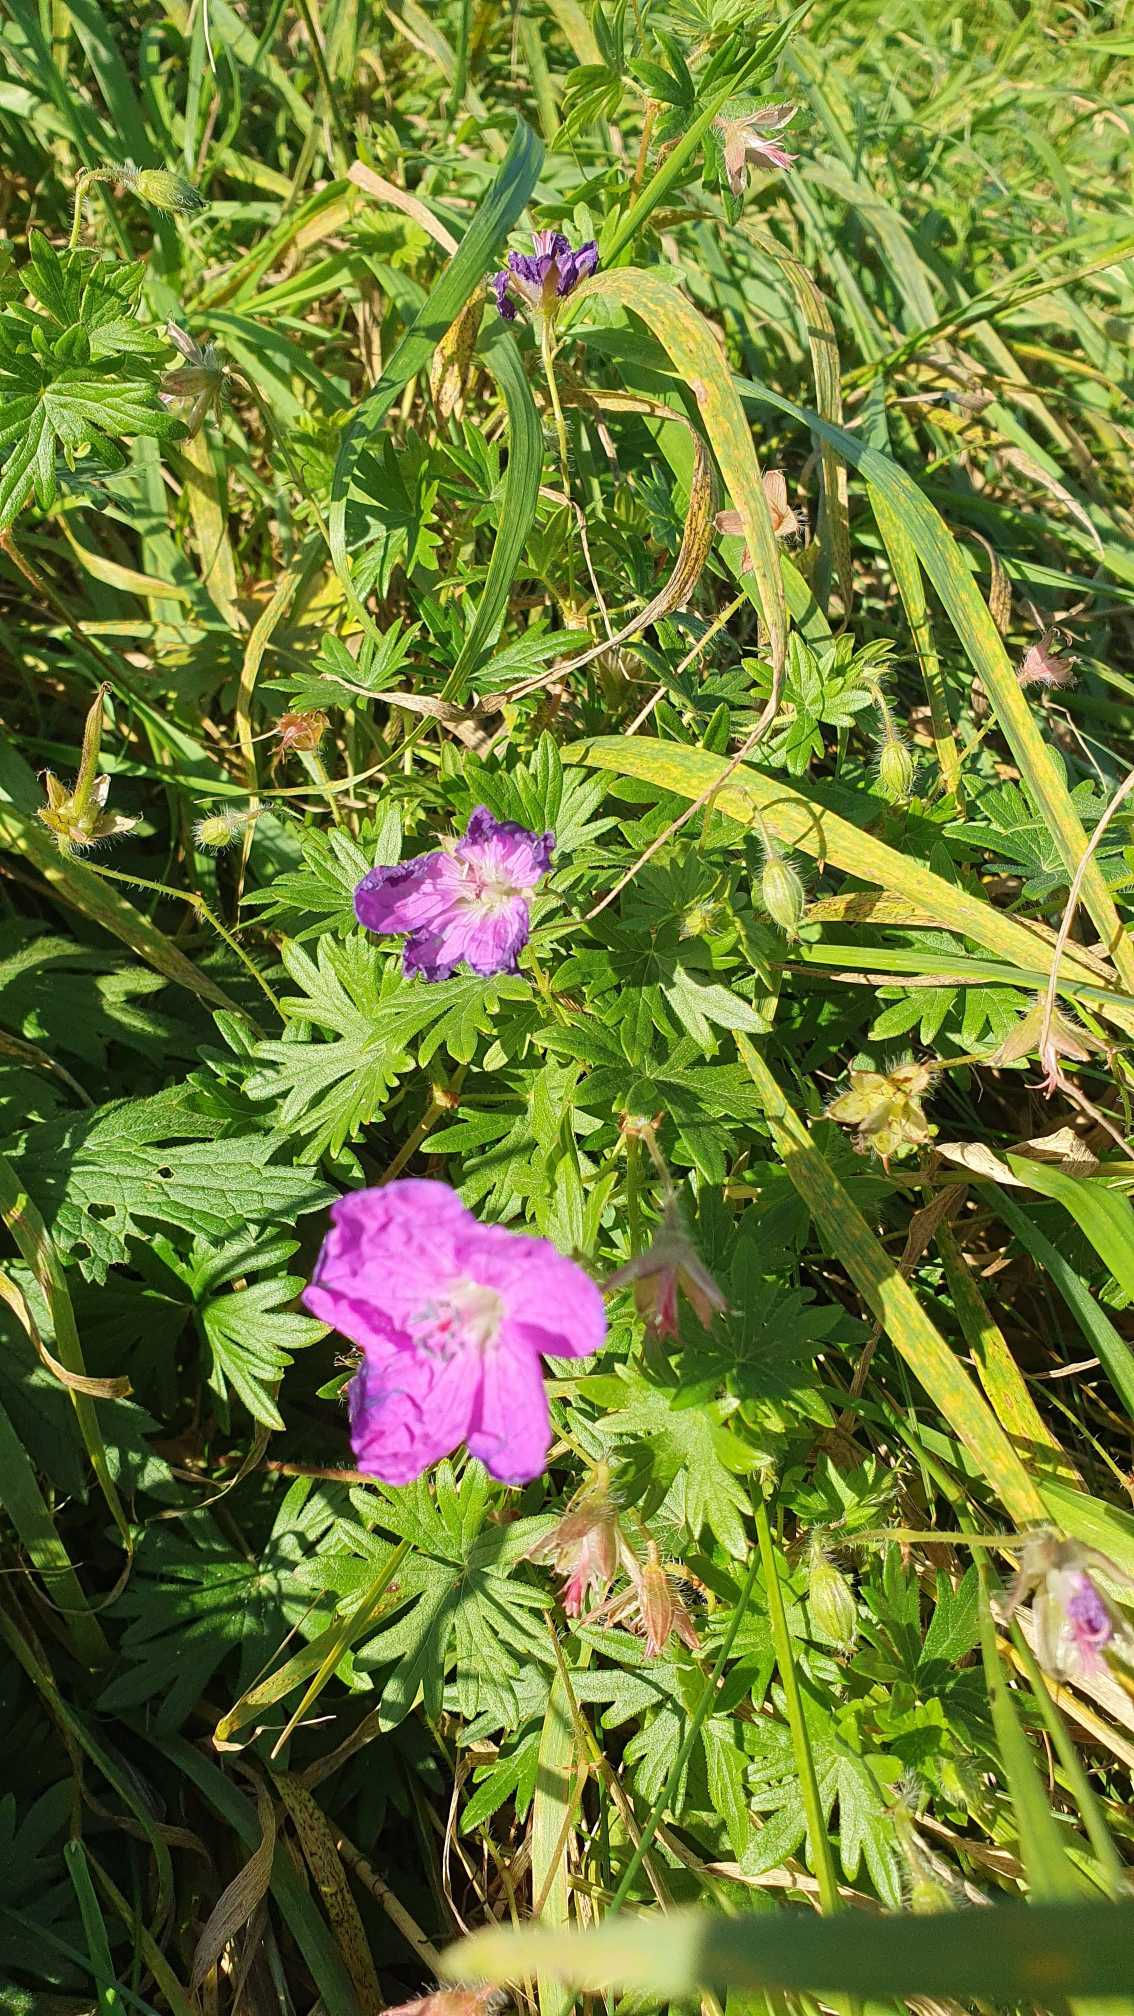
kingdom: Plantae
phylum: Tracheophyta
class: Magnoliopsida
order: Geraniales
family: Geraniaceae
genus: Geranium
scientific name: Geranium sanguineum
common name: Blodrød storkenæb
